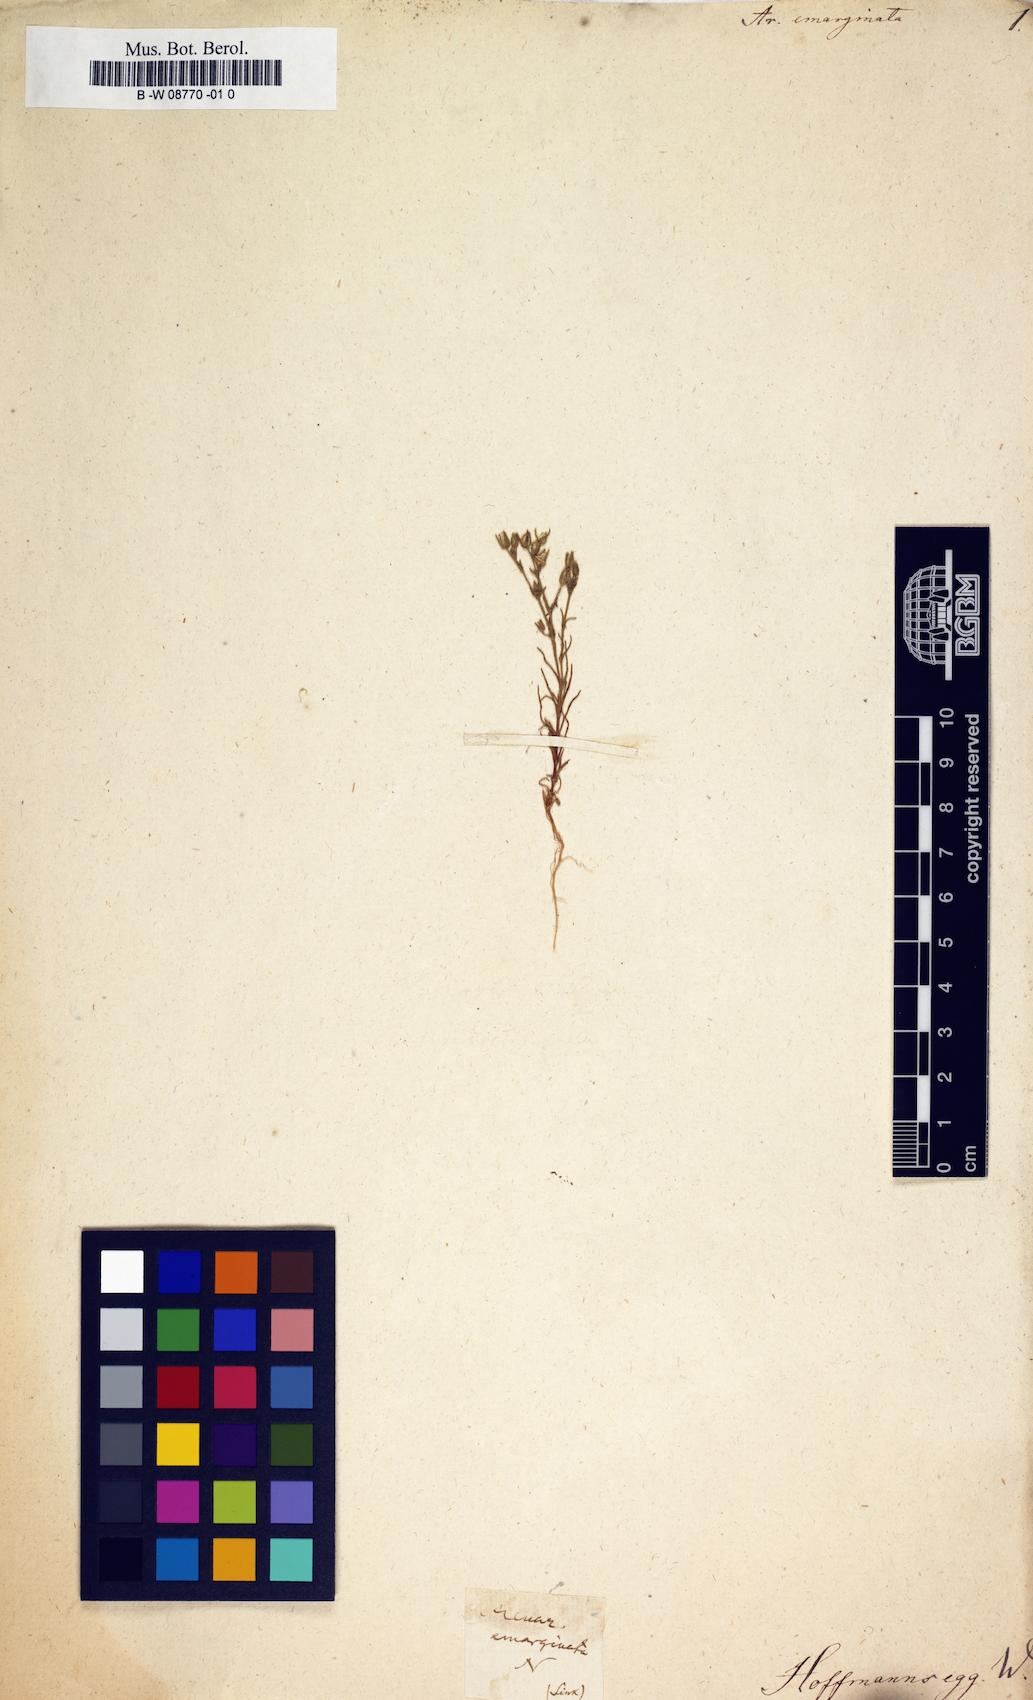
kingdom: Plantae
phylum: Tracheophyta
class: Magnoliopsida
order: Caryophyllales
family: Caryophyllaceae
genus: Sabulina
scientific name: Sabulina douglasii
